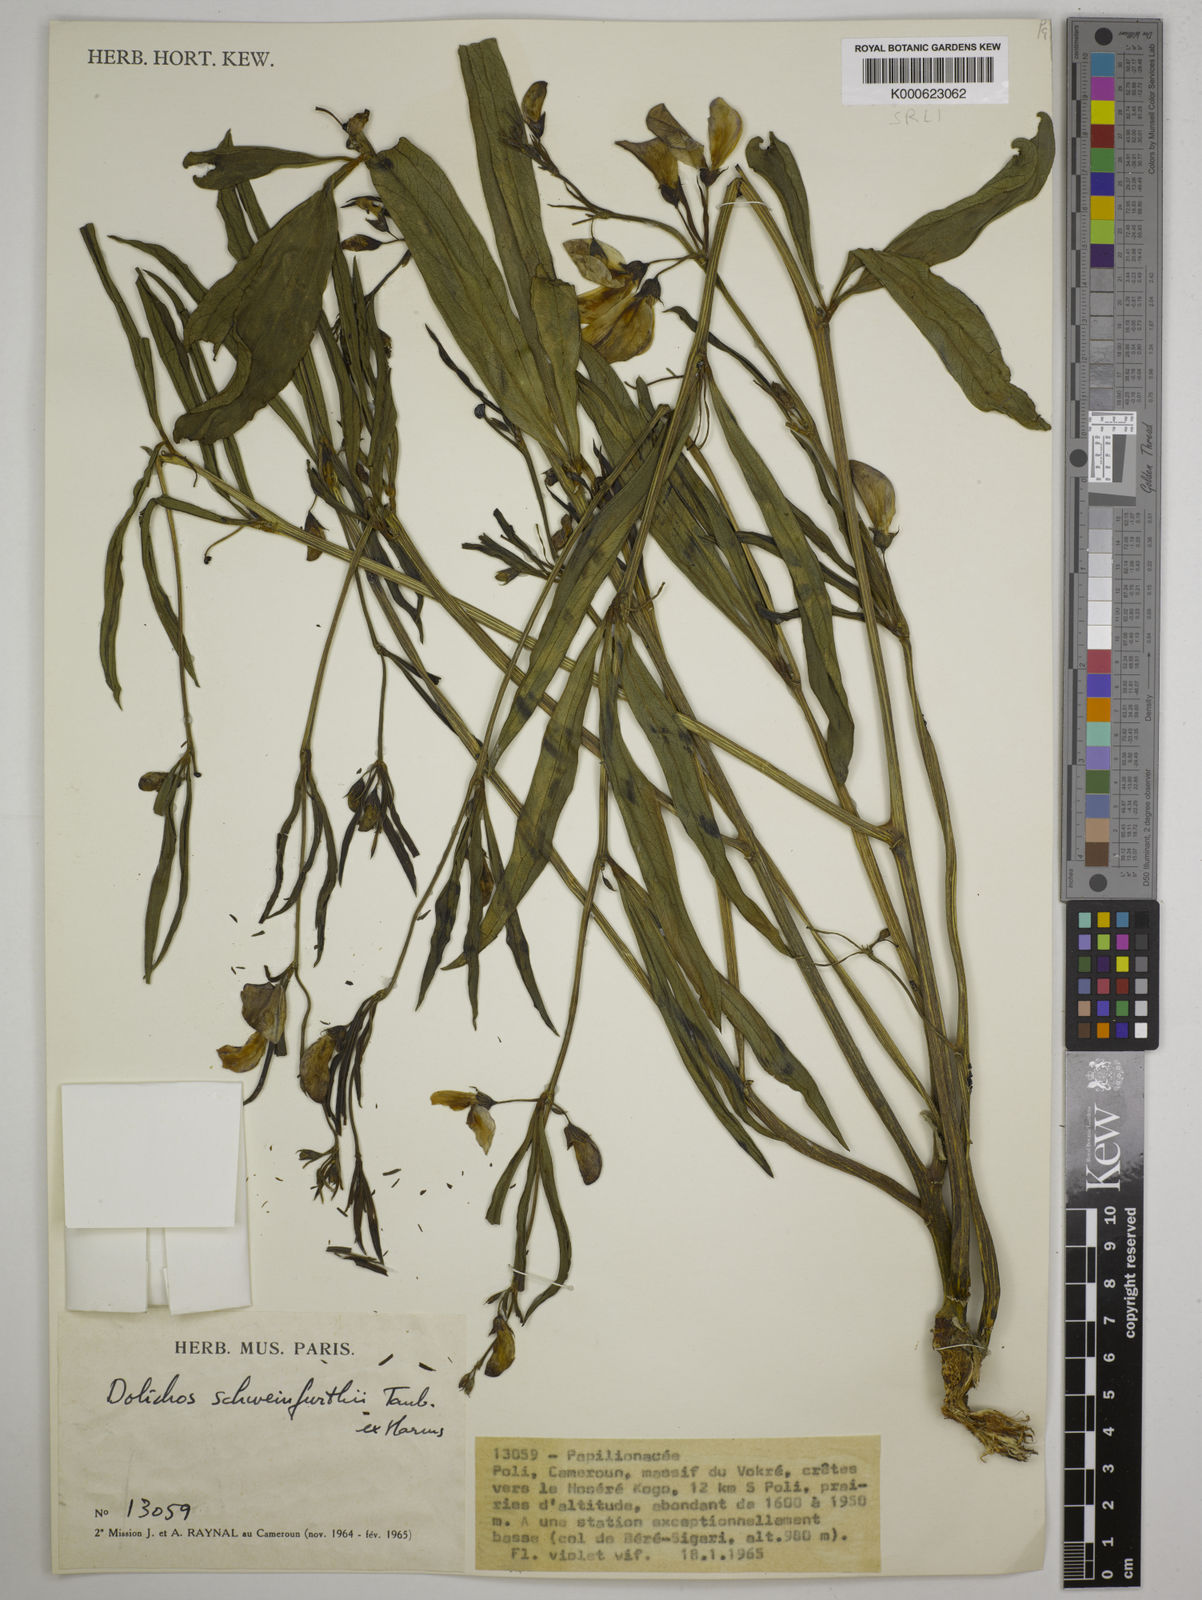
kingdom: Plantae
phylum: Tracheophyta
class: Magnoliopsida
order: Fabales
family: Fabaceae
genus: Dolichos
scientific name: Dolichos
